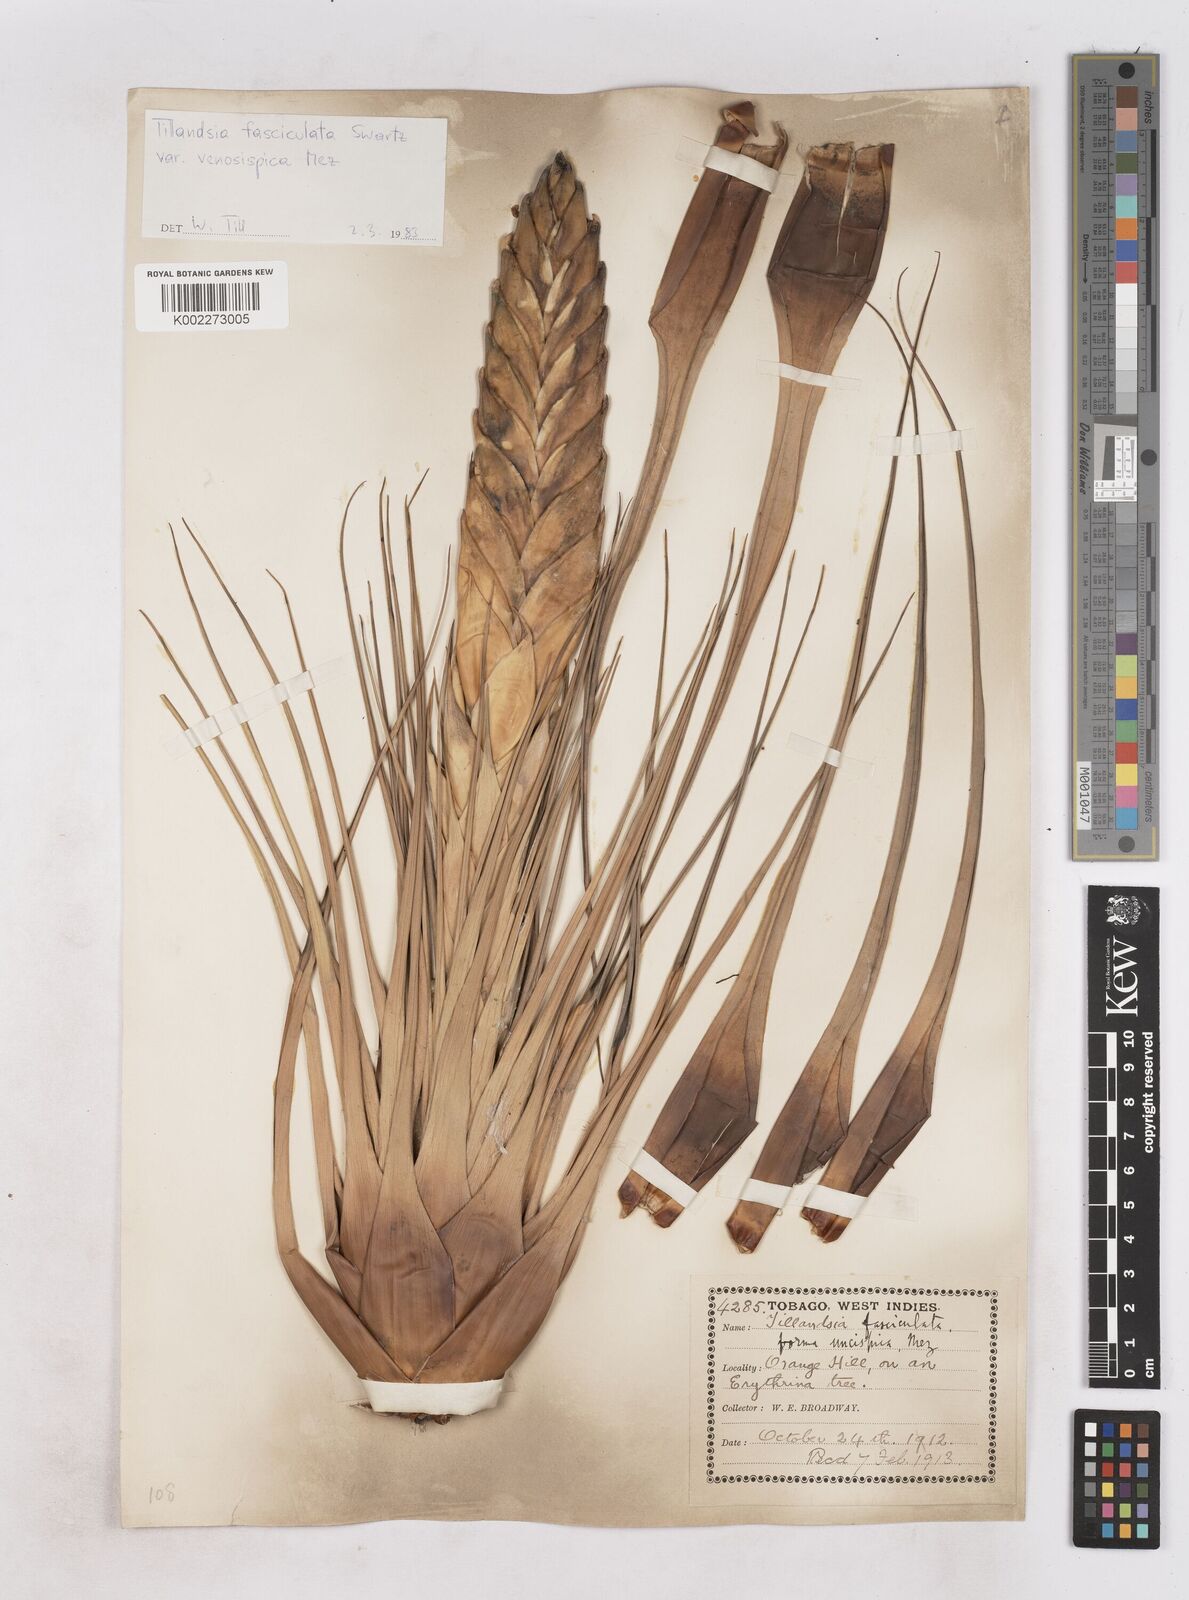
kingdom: Plantae
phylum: Tracheophyta
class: Liliopsida
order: Poales
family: Bromeliaceae
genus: Tillandsia
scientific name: Tillandsia compressa
